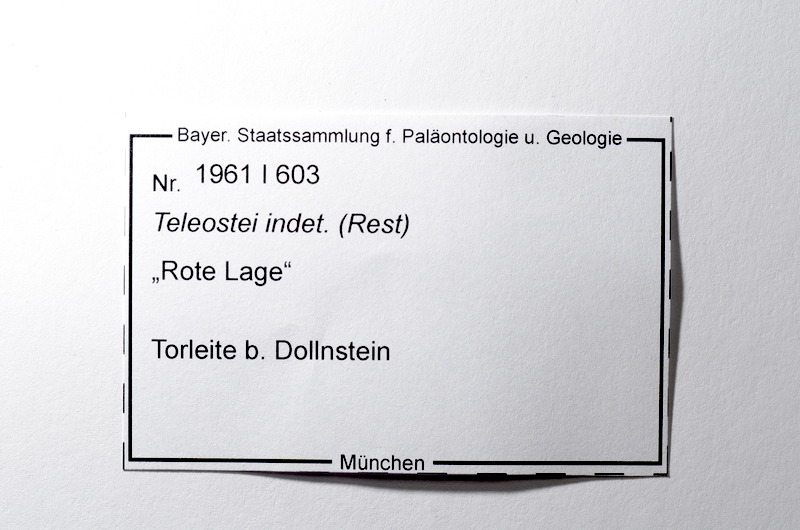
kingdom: Animalia
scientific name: Animalia
